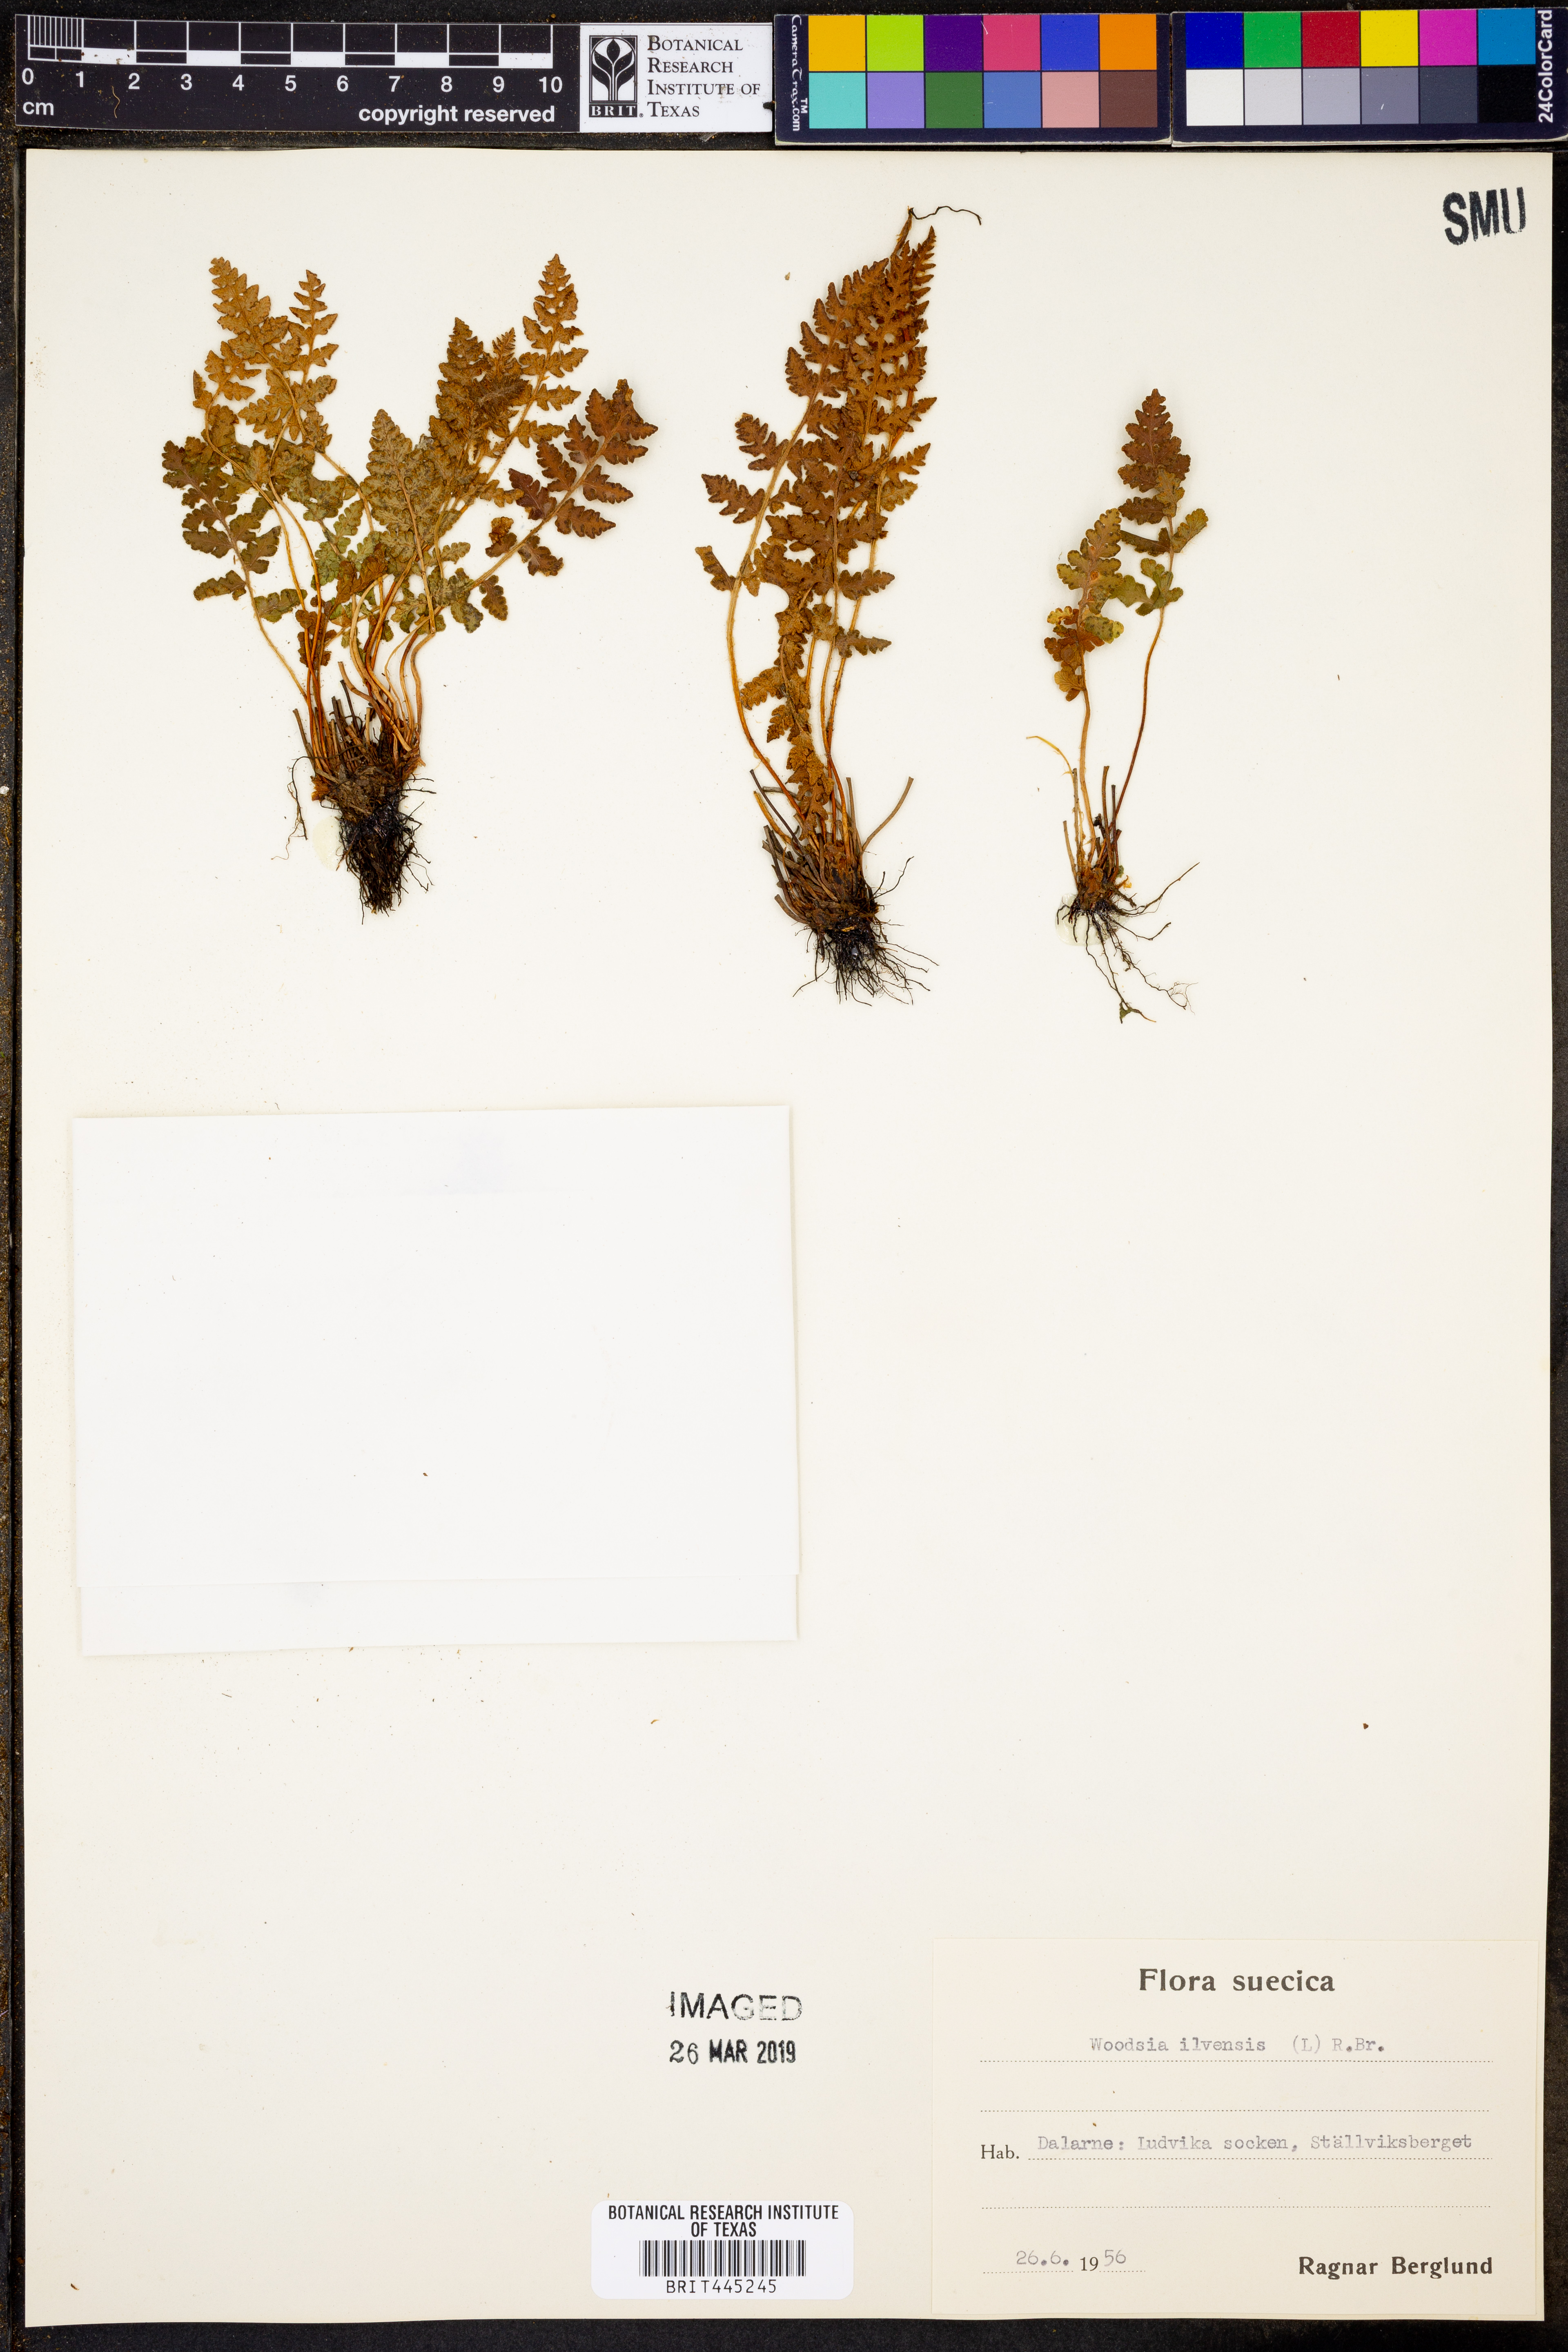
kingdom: Plantae
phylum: Tracheophyta
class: Polypodiopsida
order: Polypodiales
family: Woodsiaceae
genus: Woodsia
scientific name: Woodsia ilvensis
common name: Fragrant woodsia
